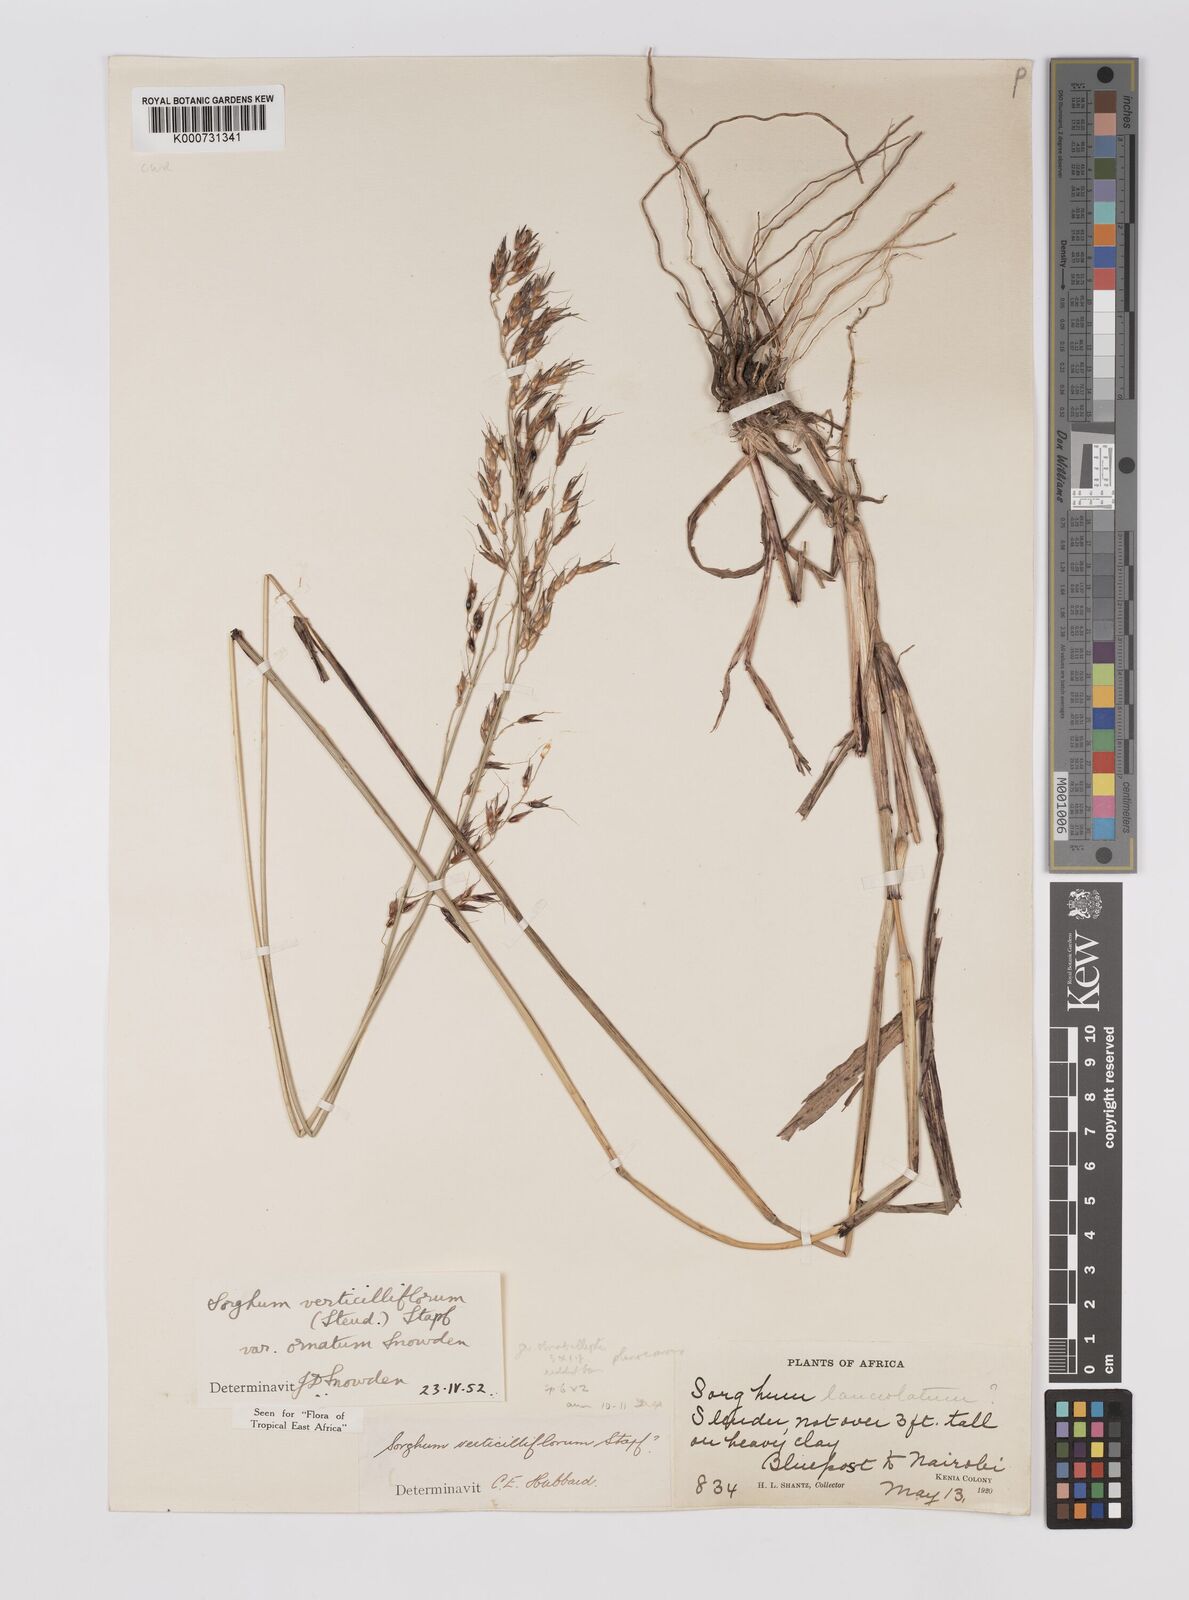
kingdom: Plantae
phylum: Tracheophyta
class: Liliopsida
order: Poales
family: Poaceae
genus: Sorghum
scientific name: Sorghum arundinaceum
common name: Sorghum
